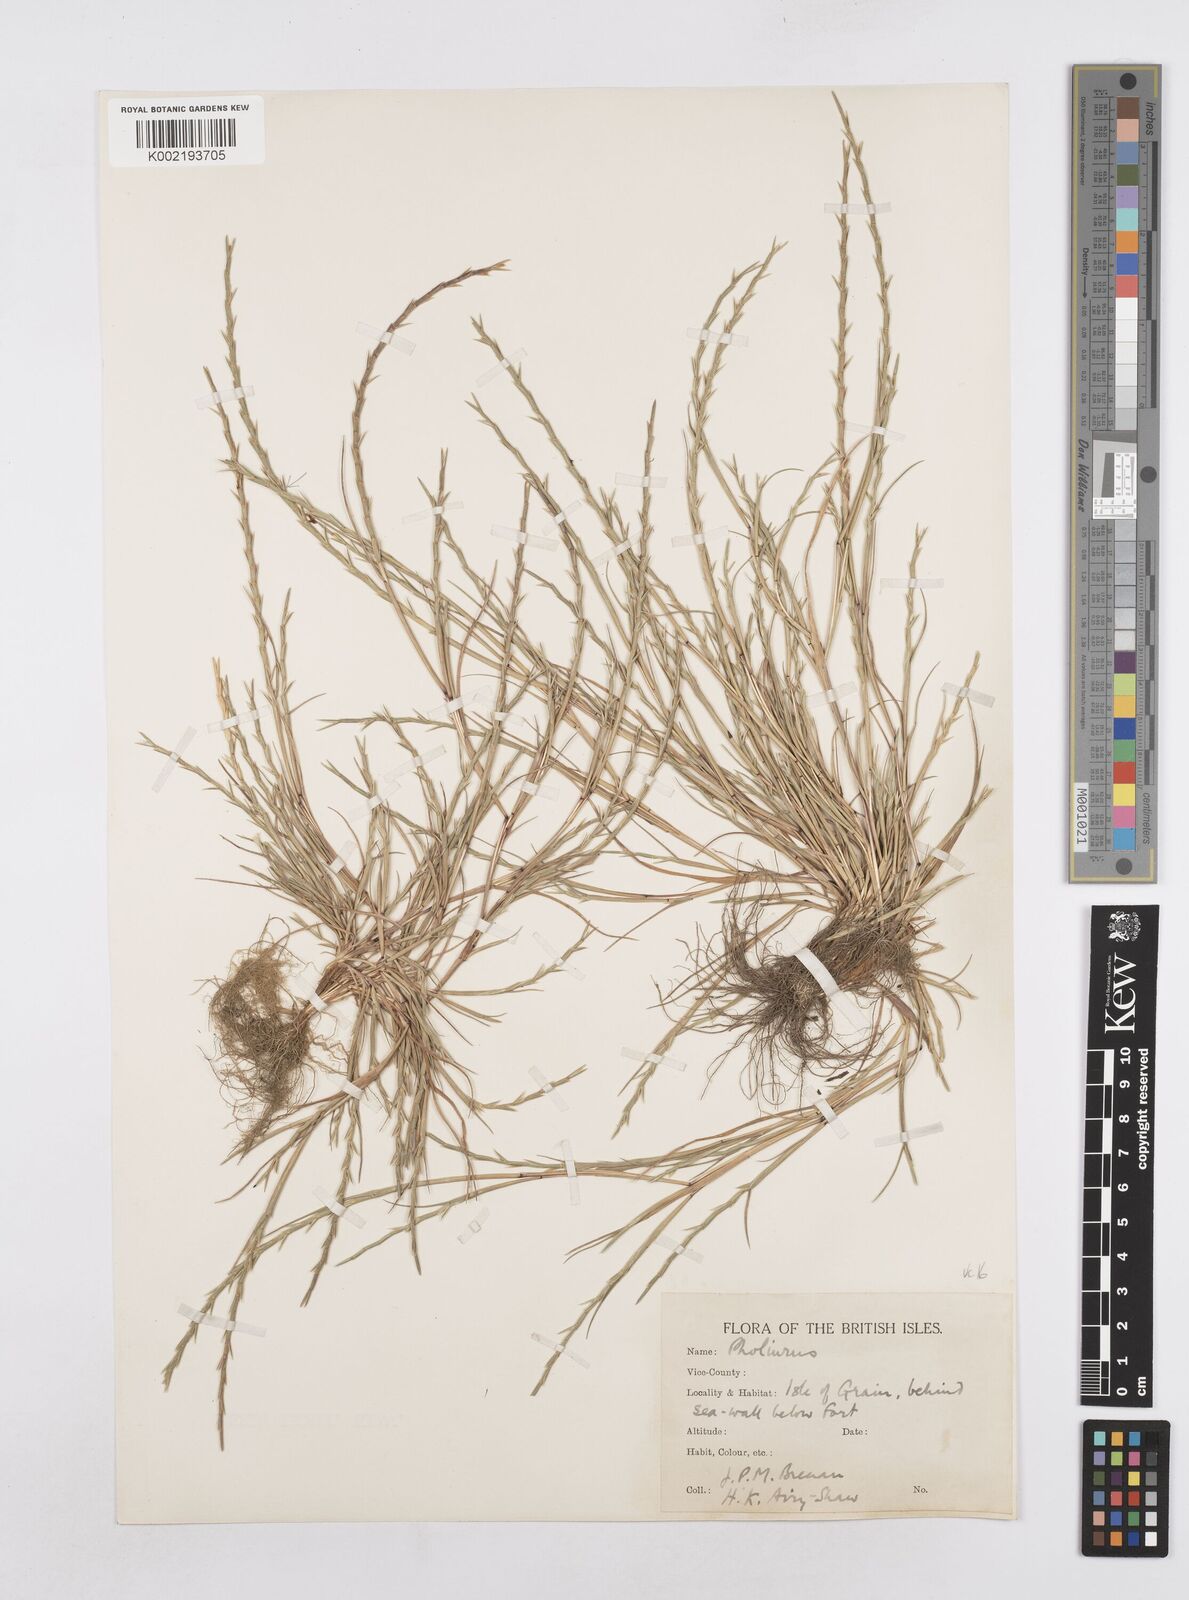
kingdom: Plantae
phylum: Tracheophyta
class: Liliopsida
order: Poales
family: Poaceae
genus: Parapholis
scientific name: Parapholis strigosa
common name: Hard-grass
